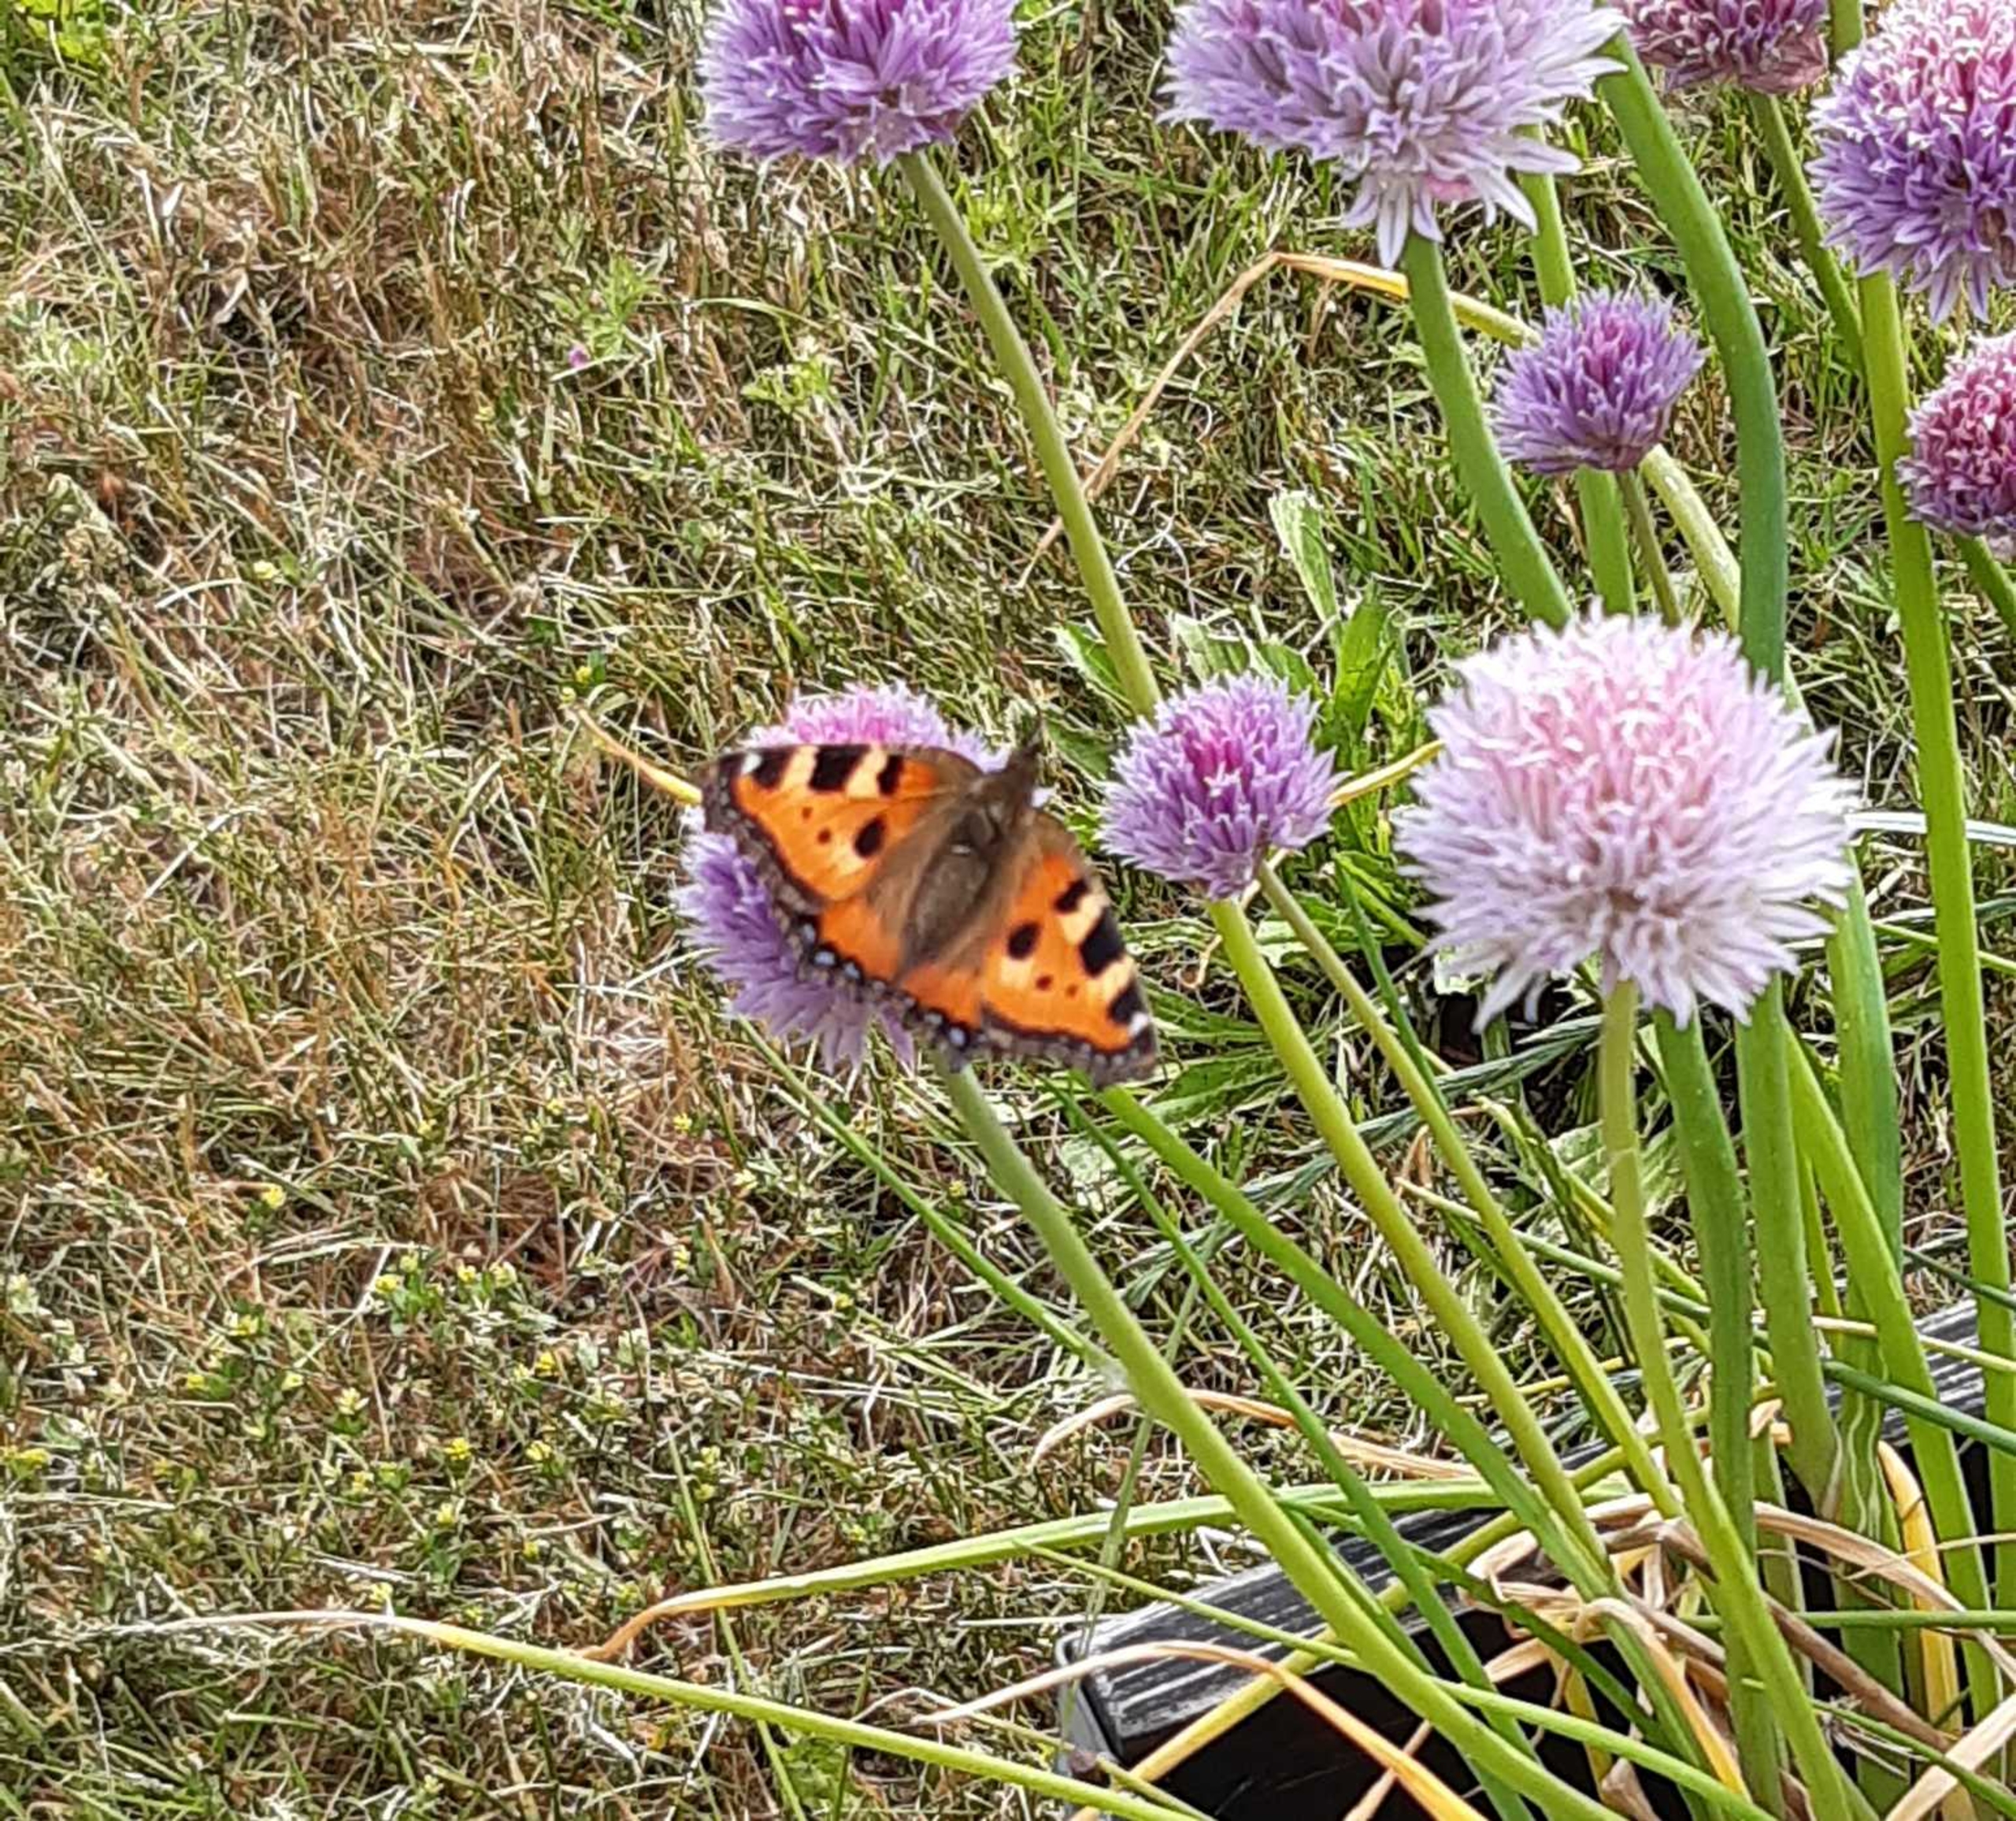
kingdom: Animalia
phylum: Arthropoda
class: Insecta
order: Lepidoptera
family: Nymphalidae
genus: Aglais
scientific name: Aglais urticae
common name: Nældens takvinge
